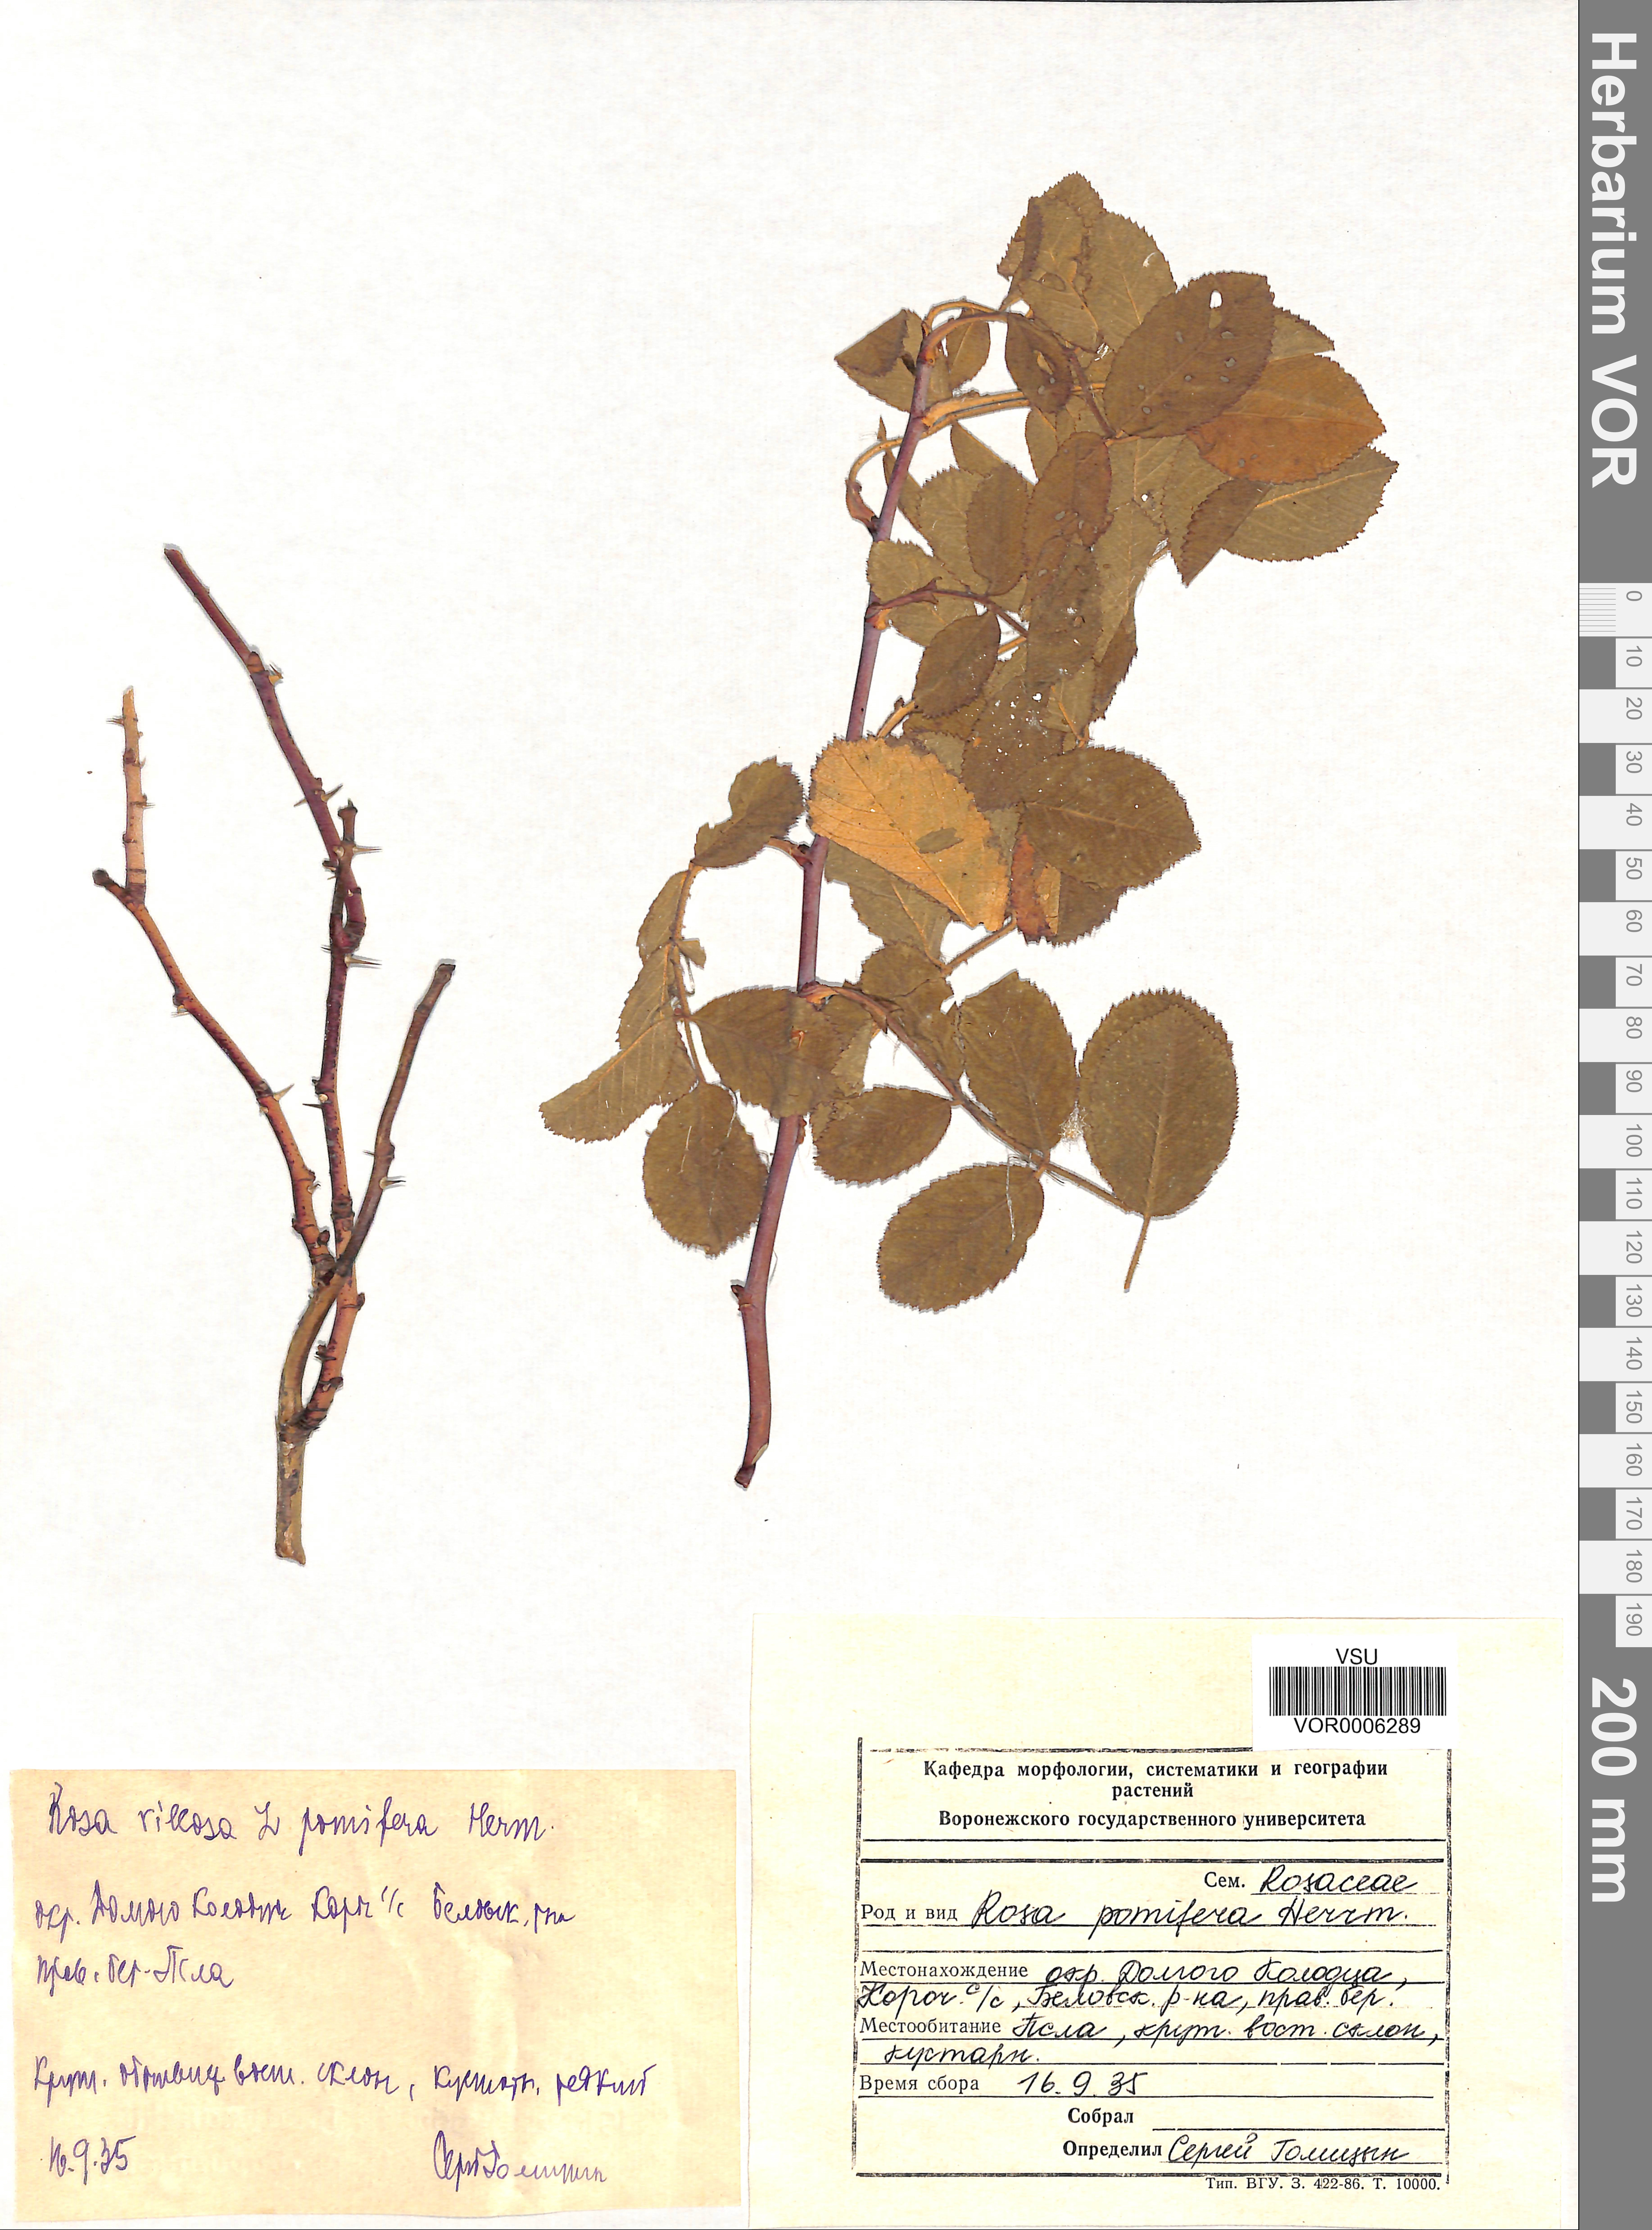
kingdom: Plantae
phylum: Tracheophyta
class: Magnoliopsida
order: Rosales
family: Rosaceae
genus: Rosa
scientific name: Rosa villosa
